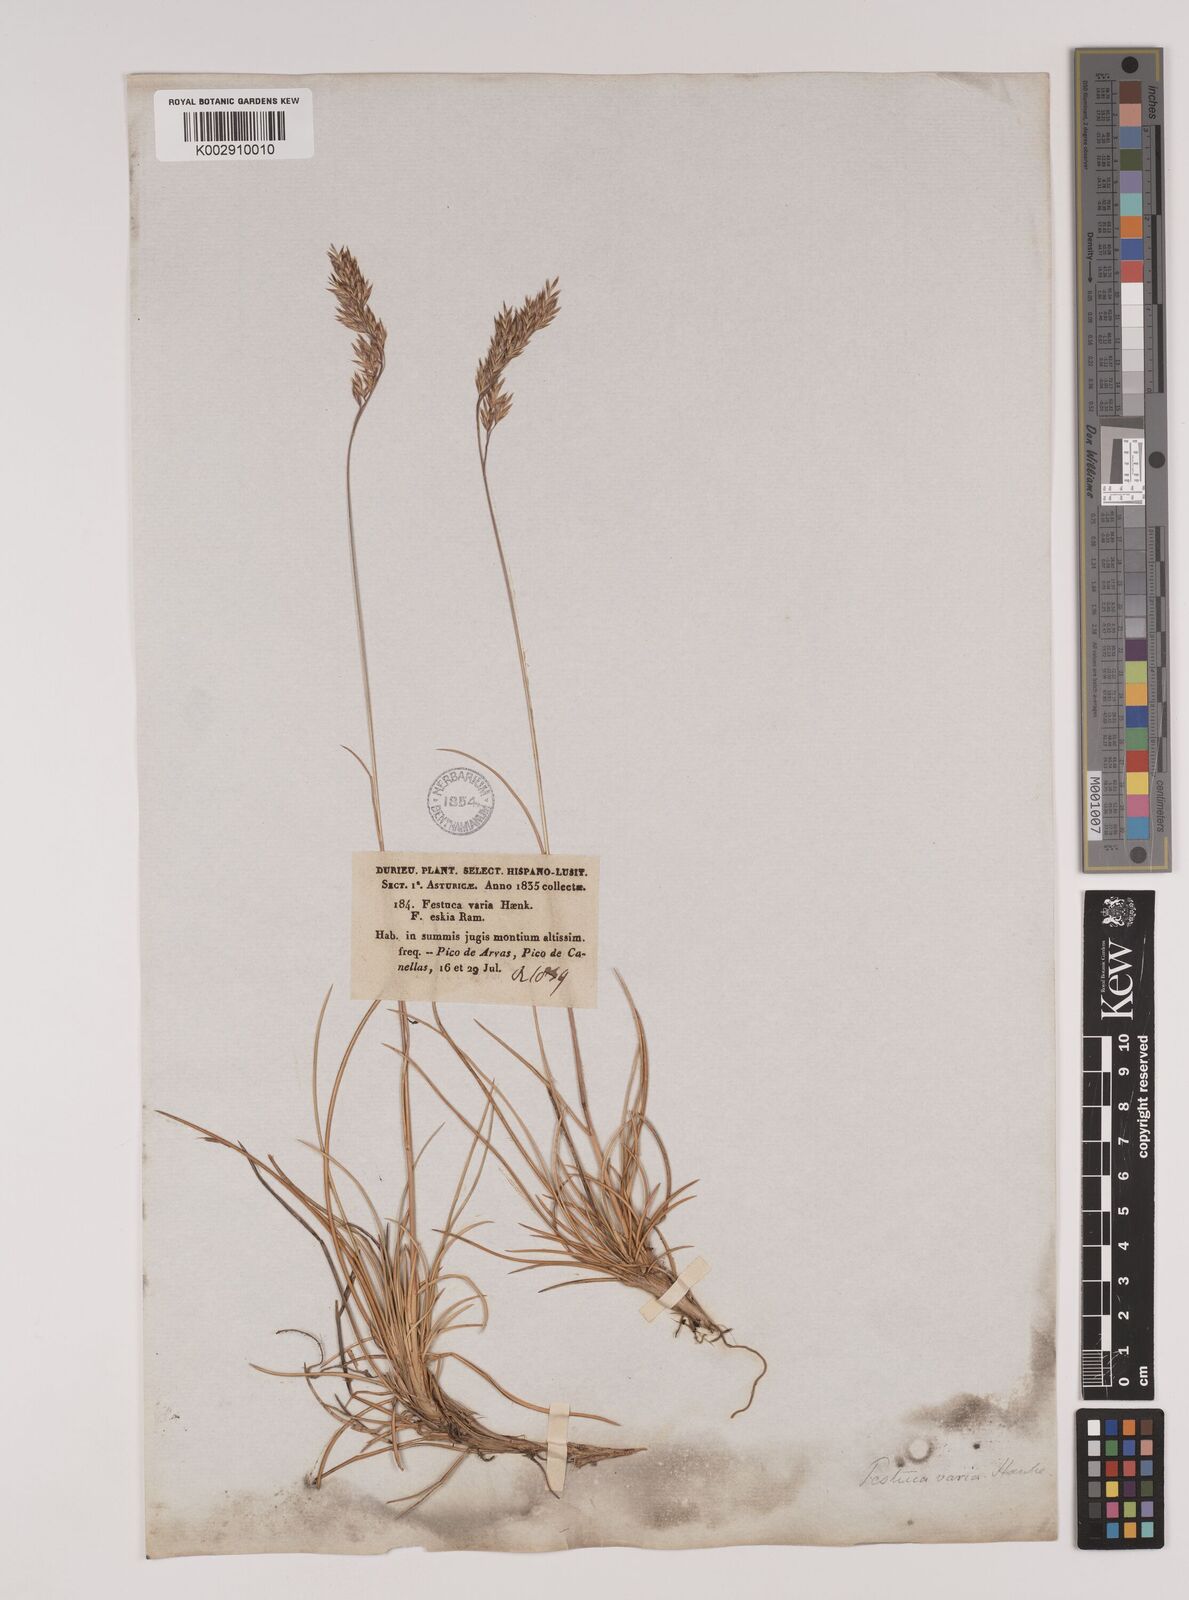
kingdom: Plantae
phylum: Tracheophyta
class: Liliopsida
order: Poales
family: Poaceae
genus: Festuca
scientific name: Festuca eskia
